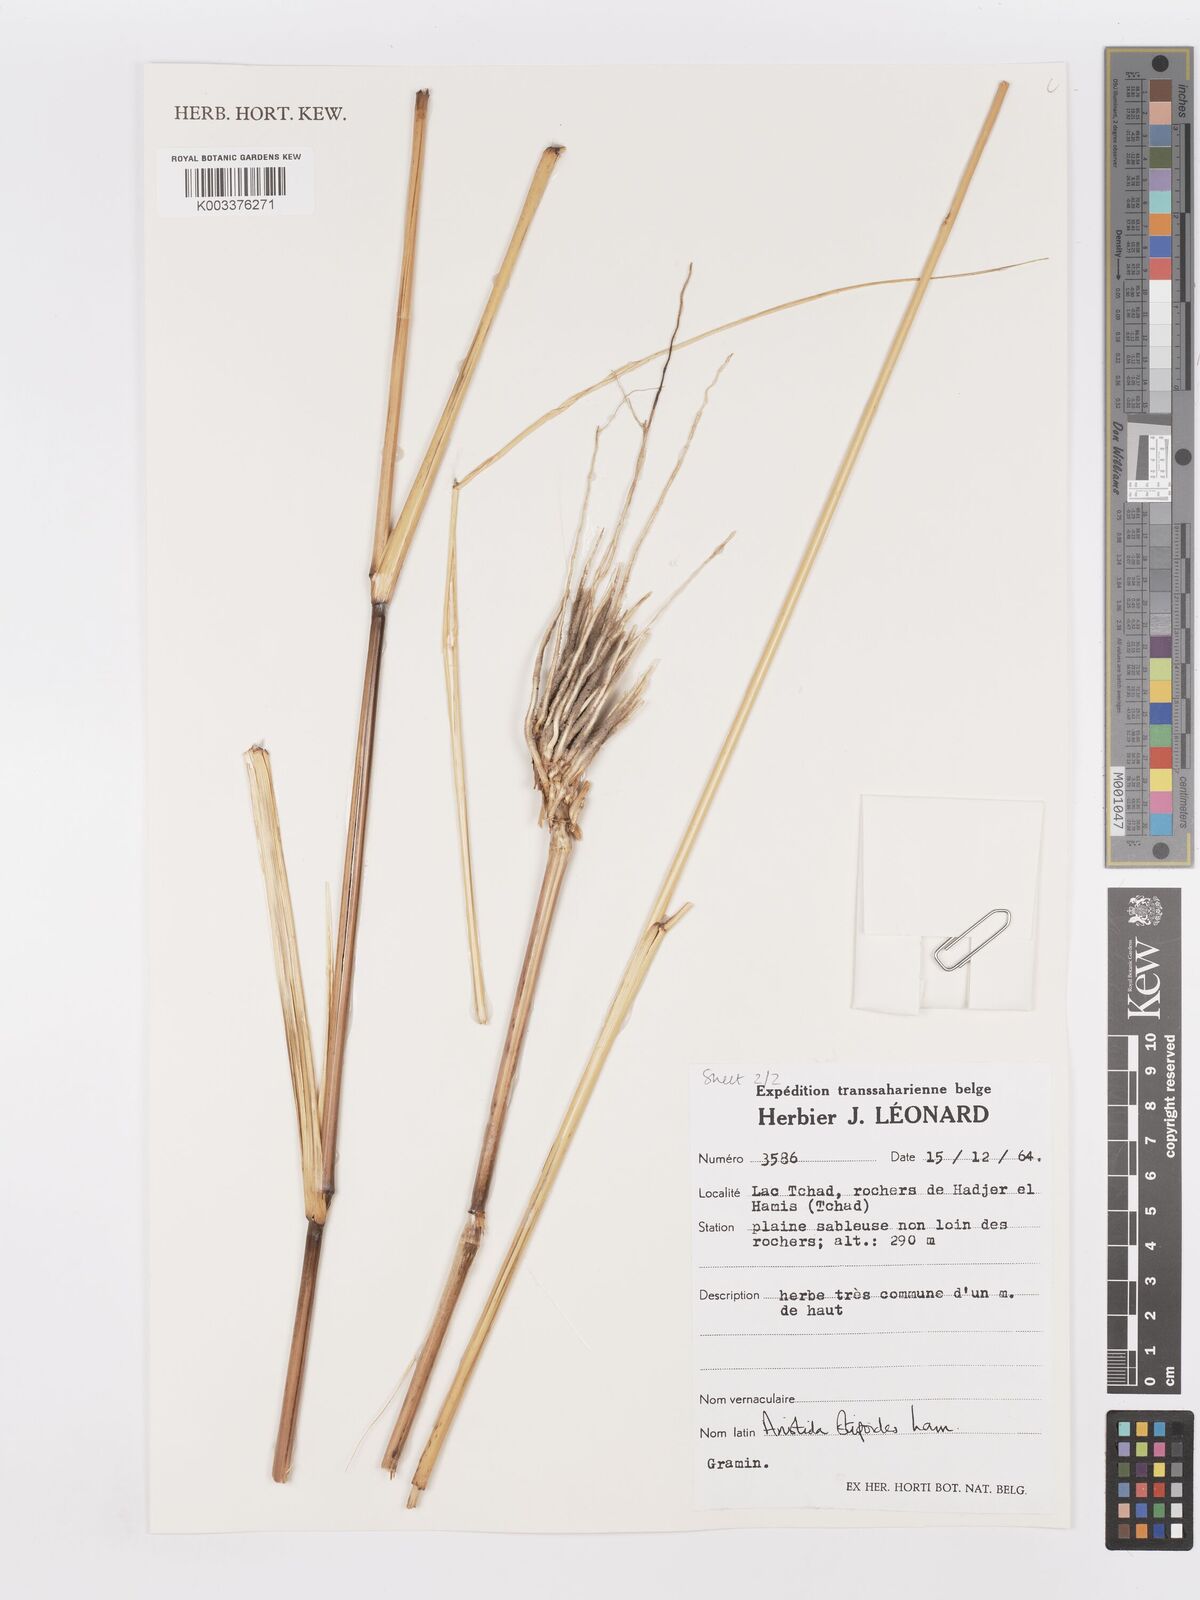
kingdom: Plantae
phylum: Tracheophyta
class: Liliopsida
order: Poales
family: Poaceae
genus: Aristida
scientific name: Aristida stipoides
